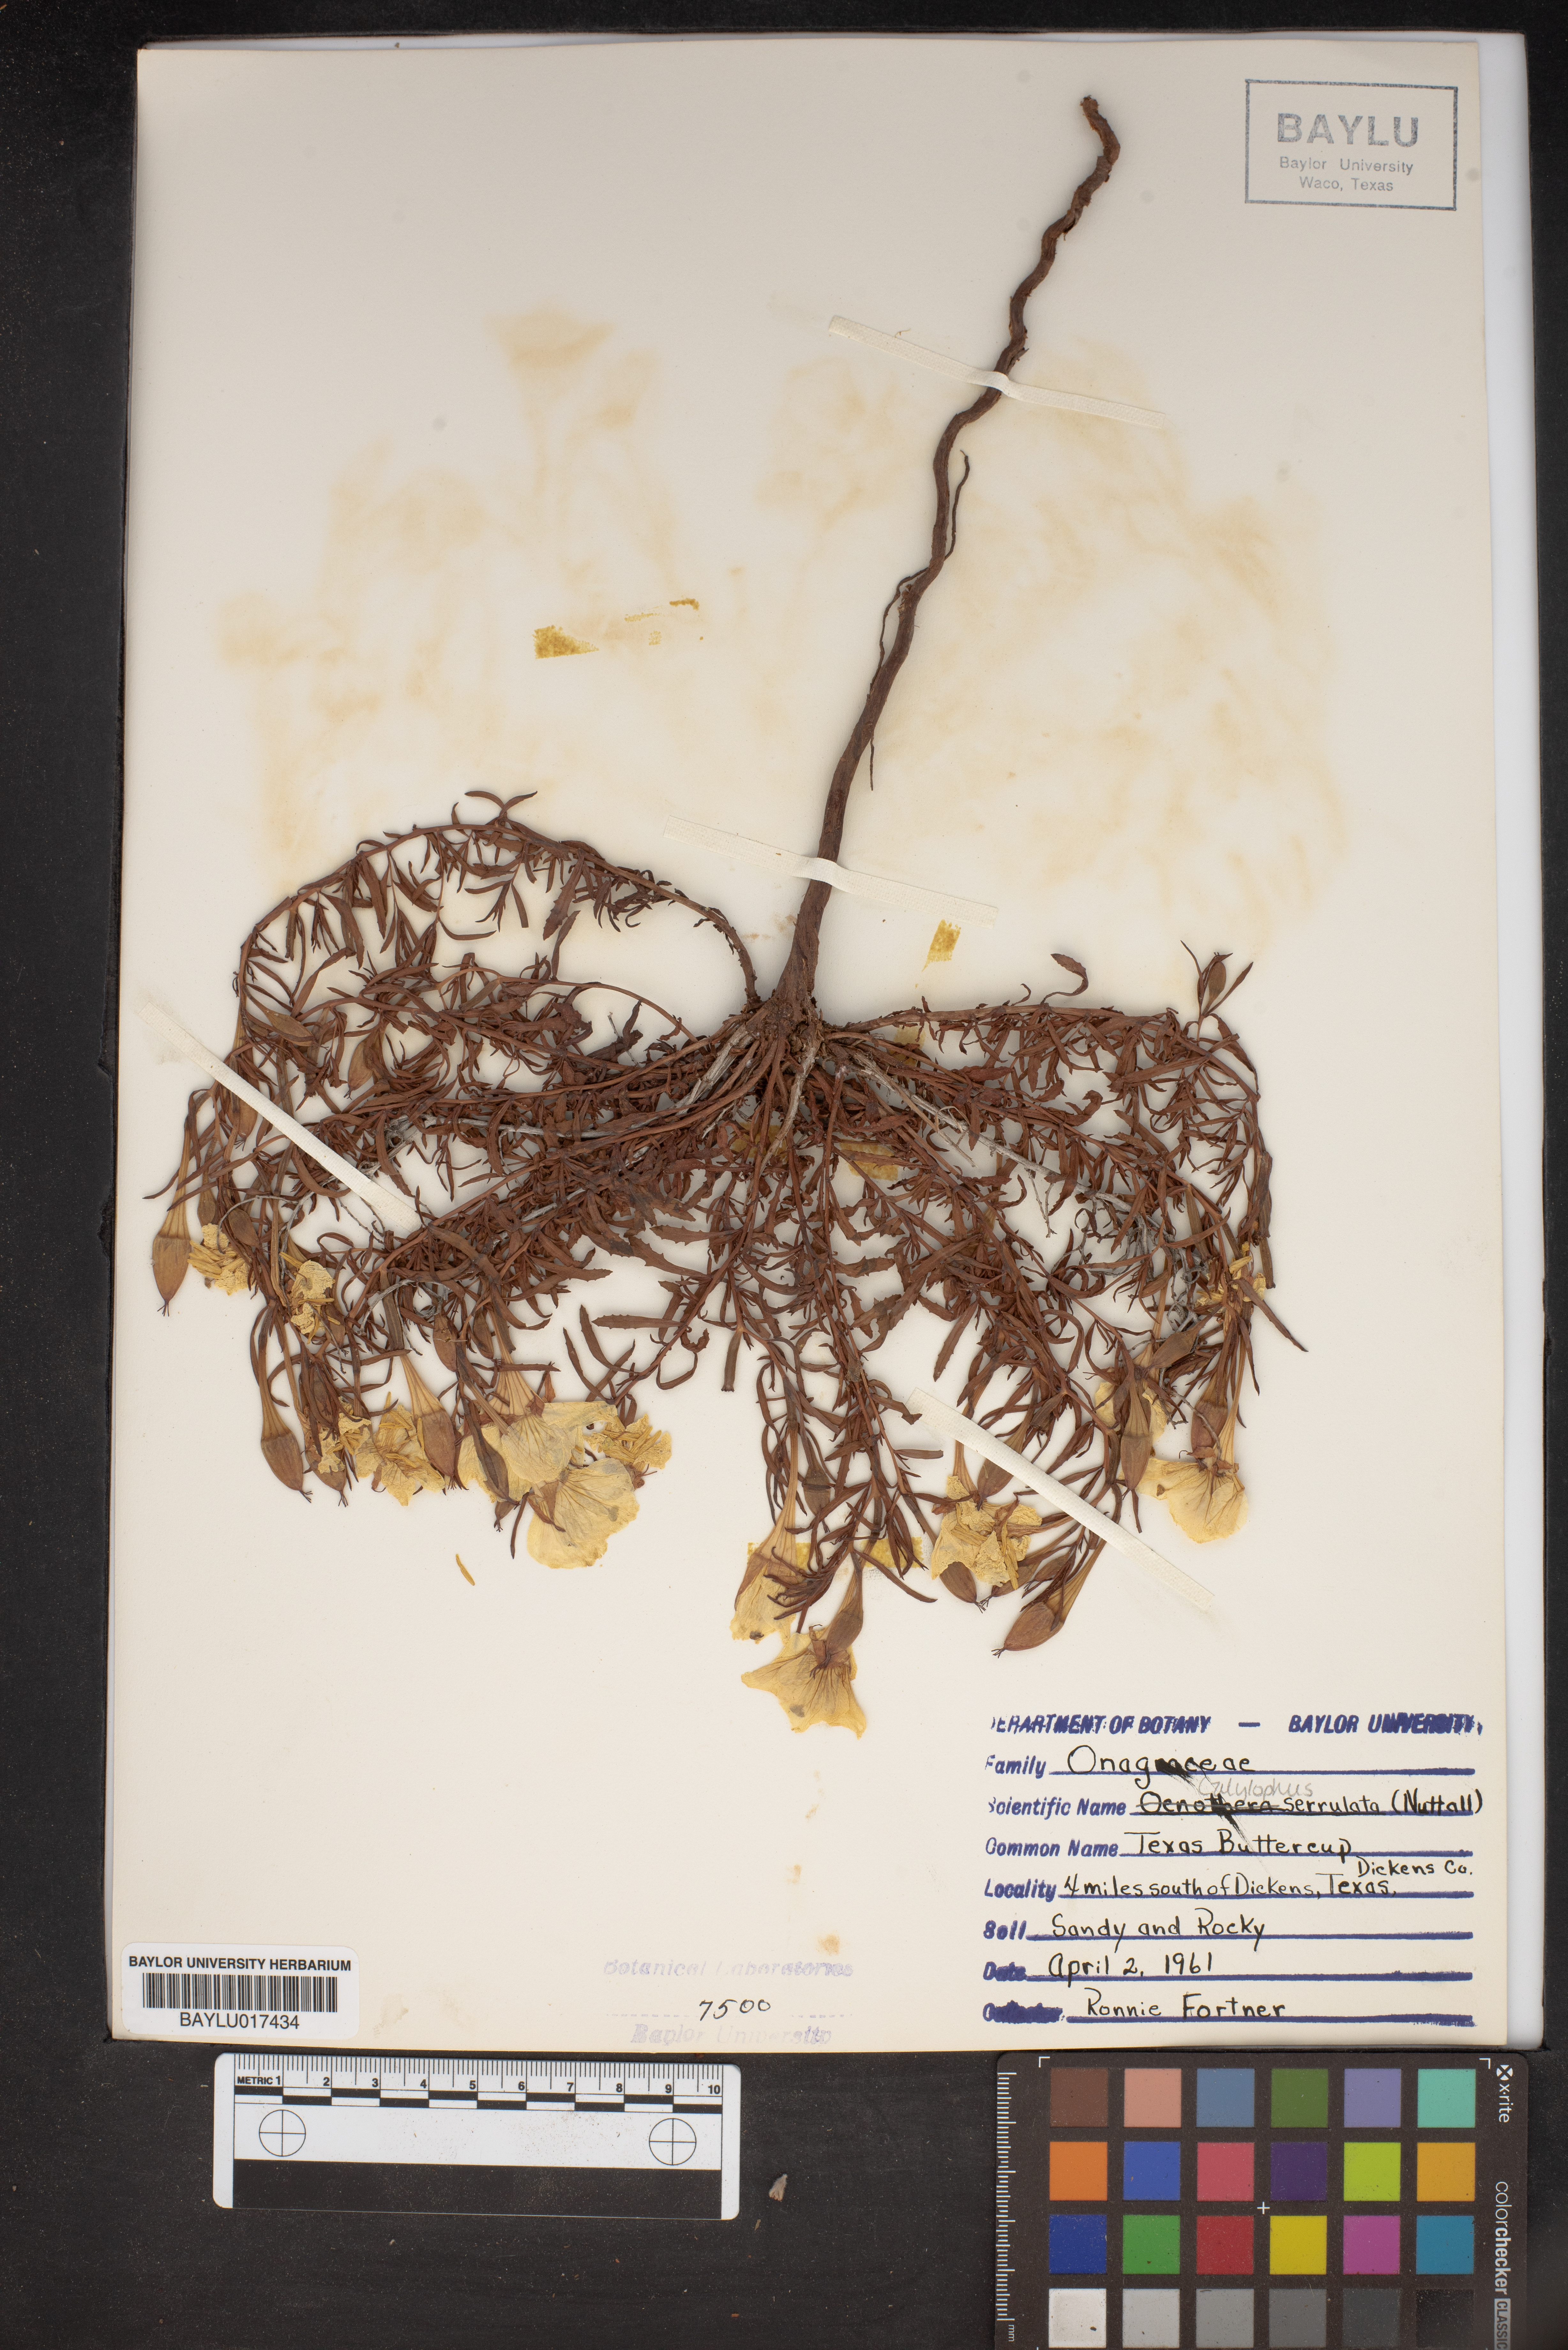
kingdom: Plantae
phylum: Tracheophyta
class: Magnoliopsida
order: Myrtales
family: Onagraceae
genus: Oenothera
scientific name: Oenothera serrulata
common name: Half-shrub calylophus
